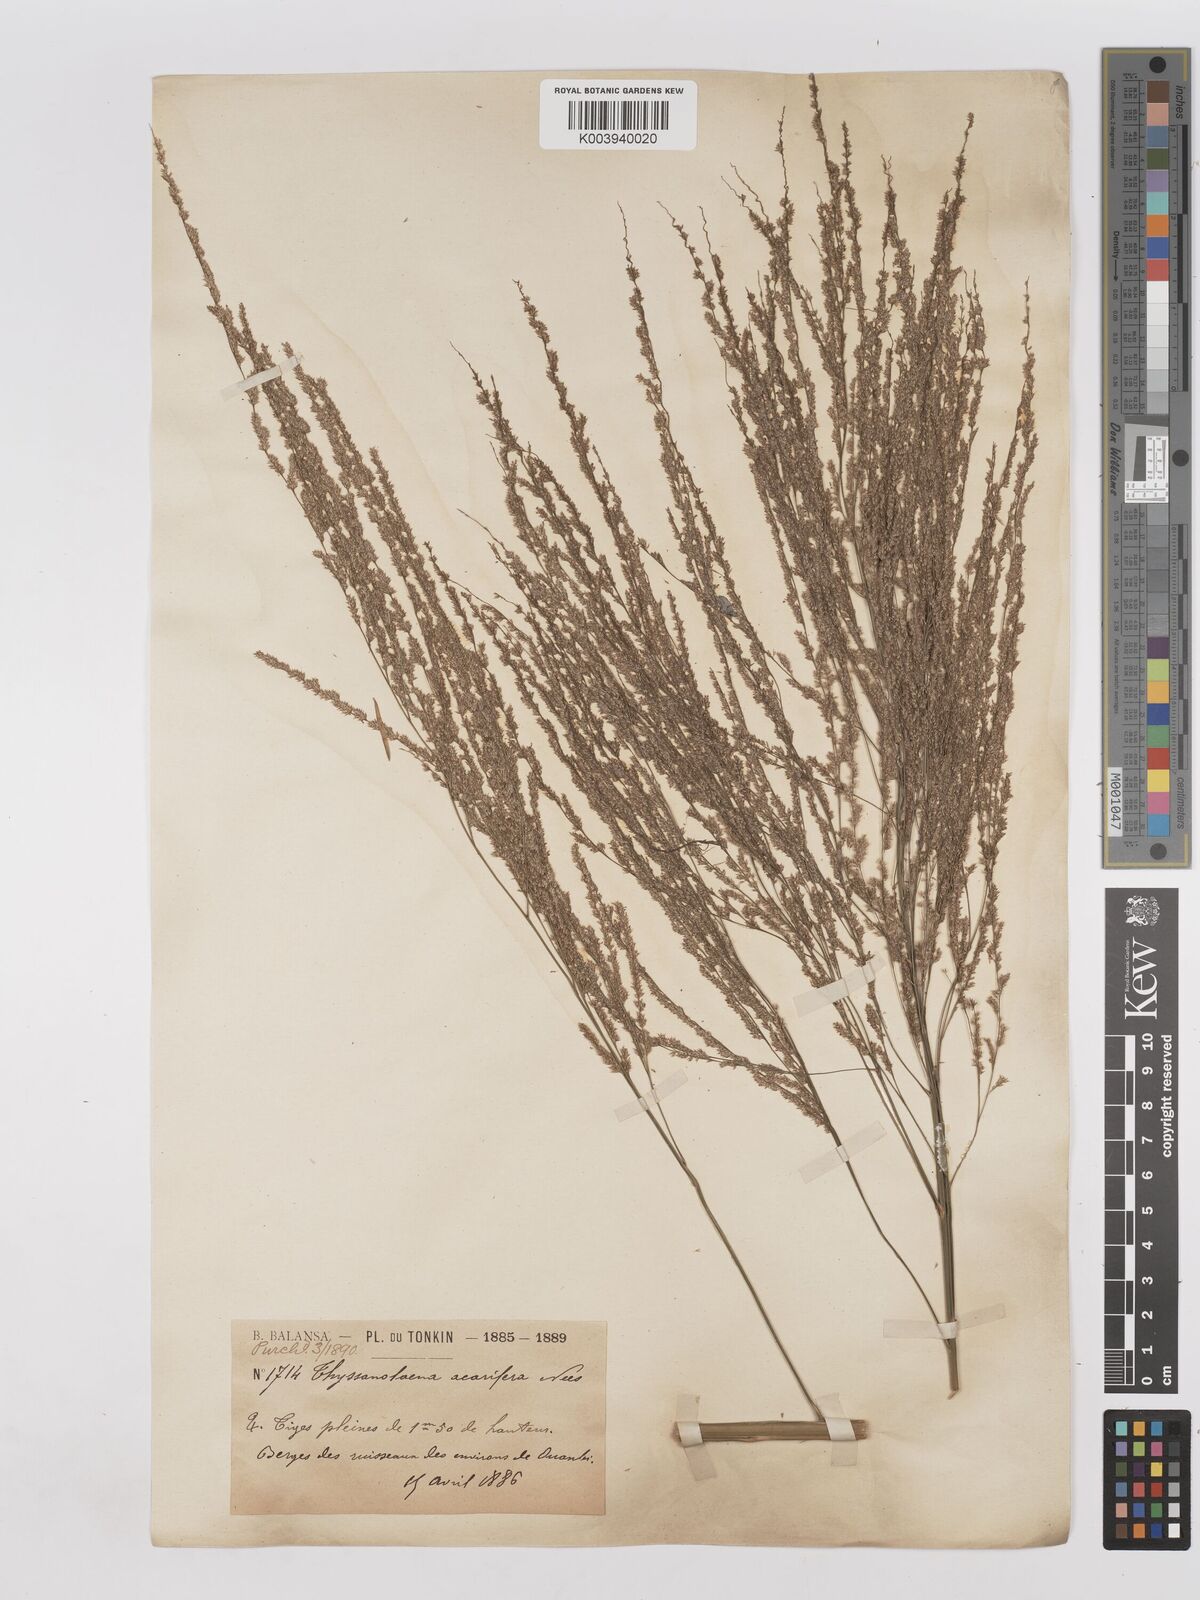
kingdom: Plantae
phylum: Tracheophyta
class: Liliopsida
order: Poales
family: Poaceae
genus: Thysanolaena
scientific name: Thysanolaena latifolia
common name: Tiger grass
